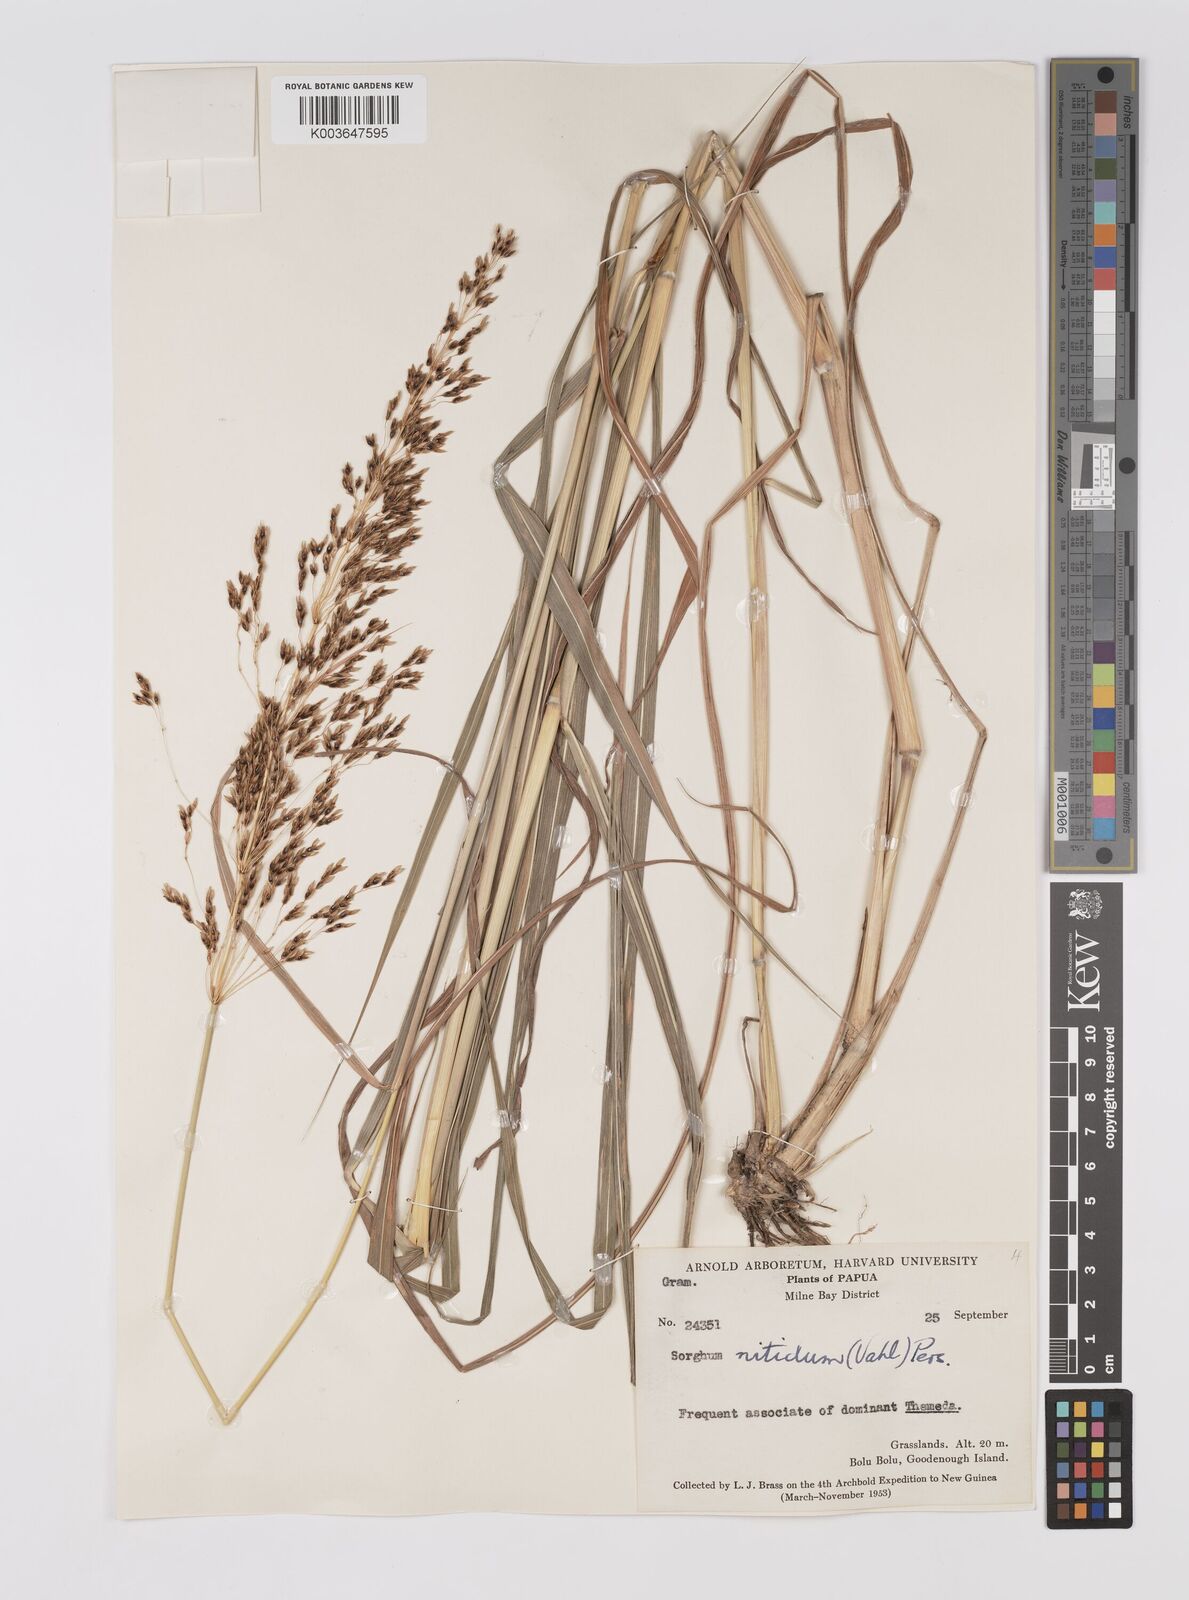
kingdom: Plantae
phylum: Tracheophyta
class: Liliopsida
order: Poales
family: Poaceae
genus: Sorghum
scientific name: Sorghum nitidum
